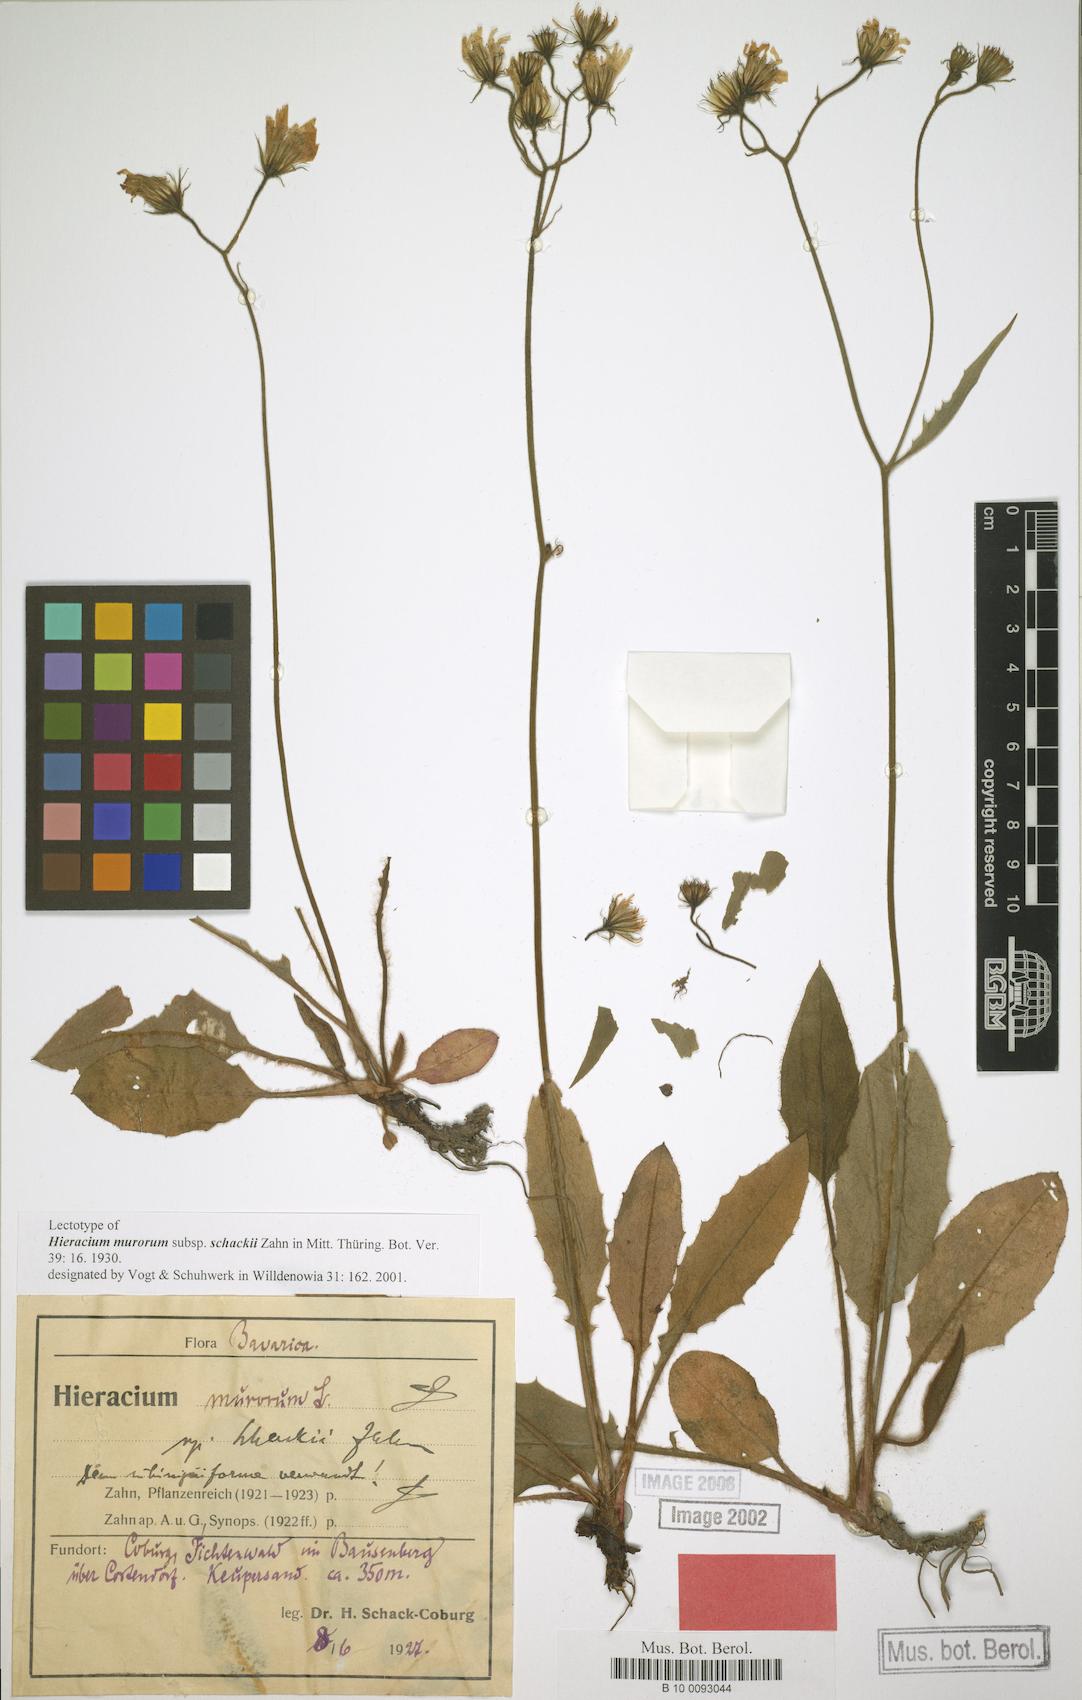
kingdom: Plantae
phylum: Tracheophyta
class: Magnoliopsida
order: Asterales
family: Asteraceae
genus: Hieracium
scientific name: Hieracium murorum
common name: Wall hawkweed
